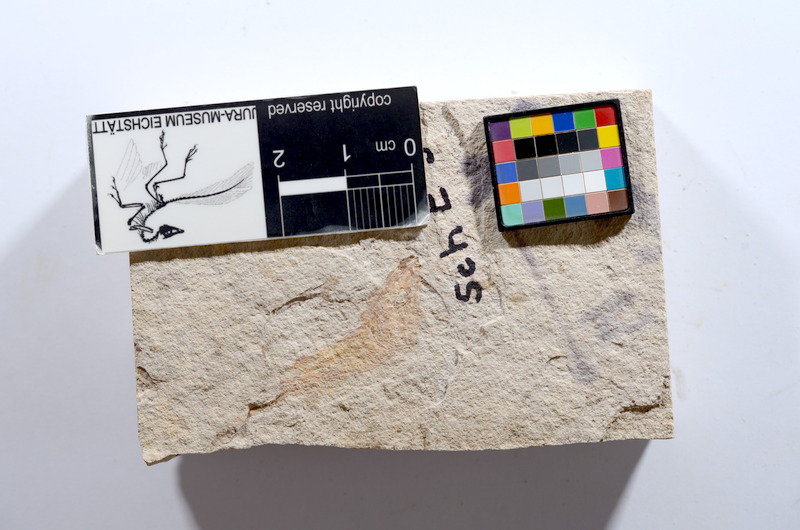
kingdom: Animalia
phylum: Chordata
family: Ascalaboidae
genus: Tharsis
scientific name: Tharsis dubius
